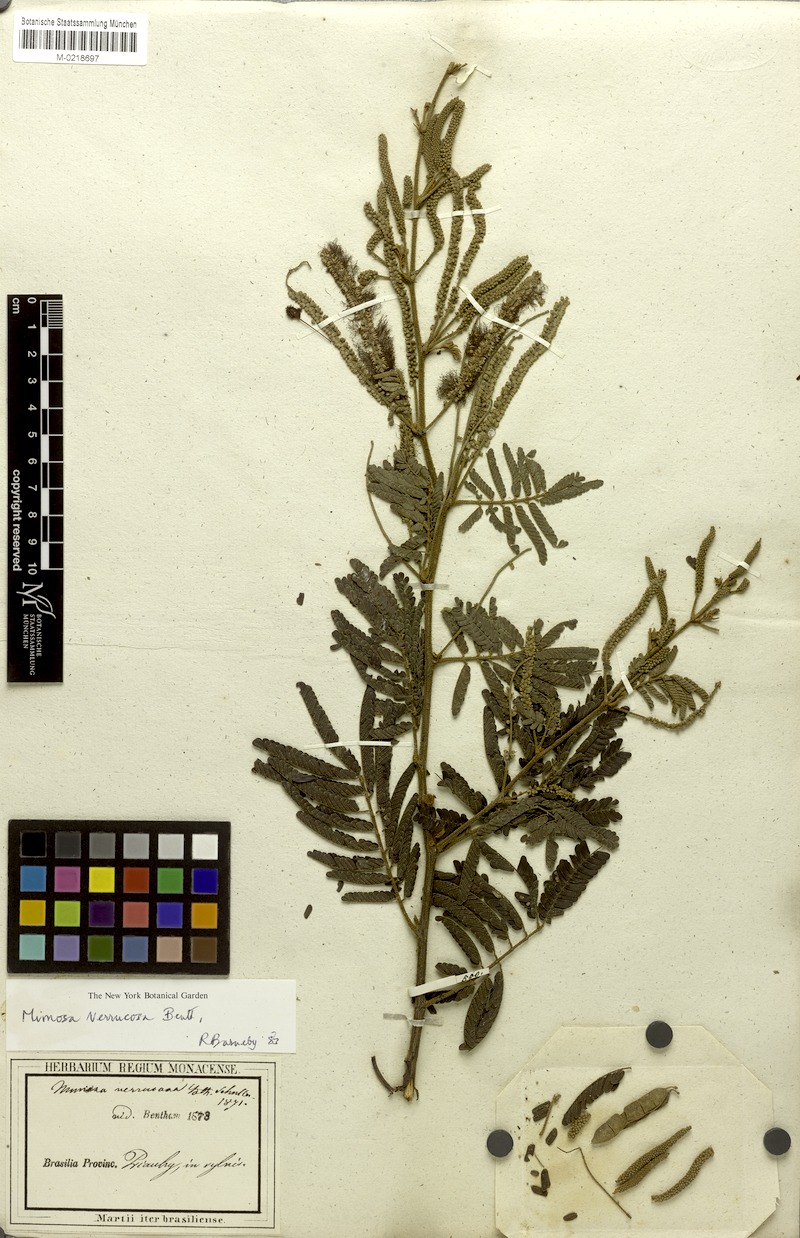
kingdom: Plantae
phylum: Tracheophyta
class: Magnoliopsida
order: Fabales
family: Fabaceae
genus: Mimosa
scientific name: Mimosa verrucosa
